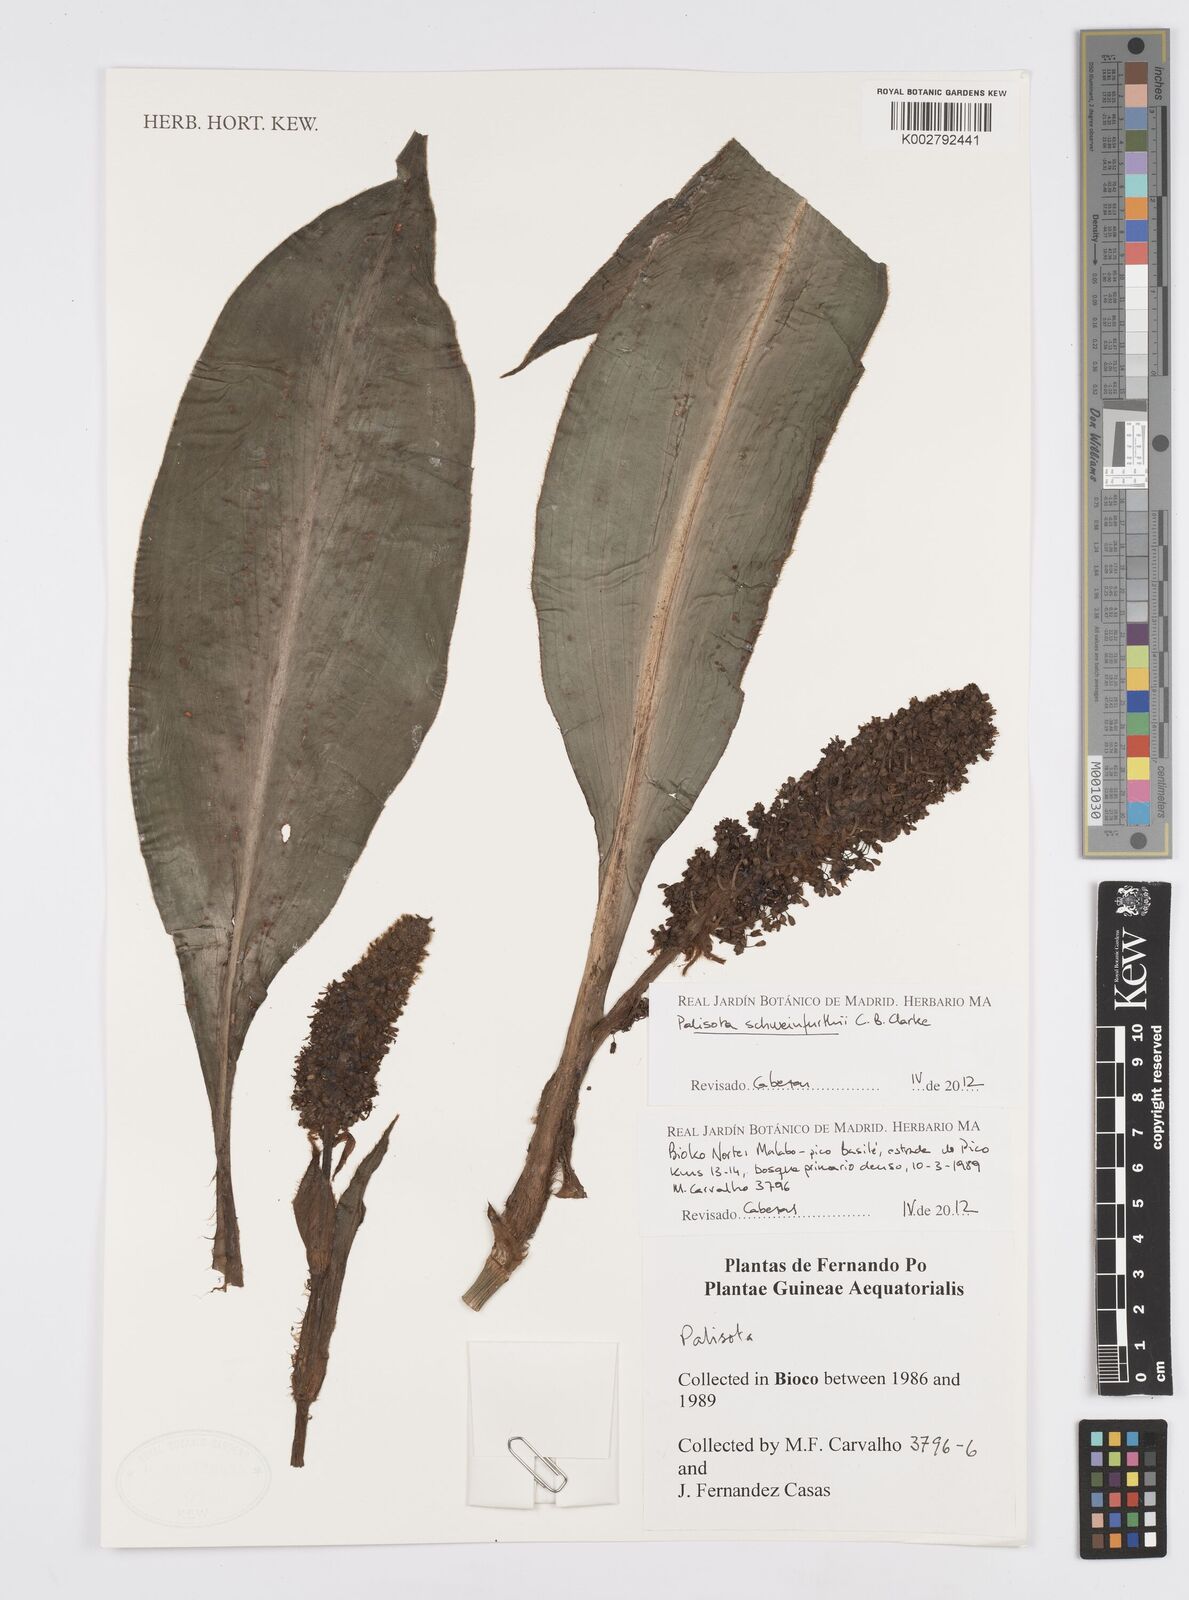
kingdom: Plantae
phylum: Tracheophyta
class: Liliopsida
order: Commelinales
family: Commelinaceae
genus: Palisota
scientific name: Palisota schweinfurthii
